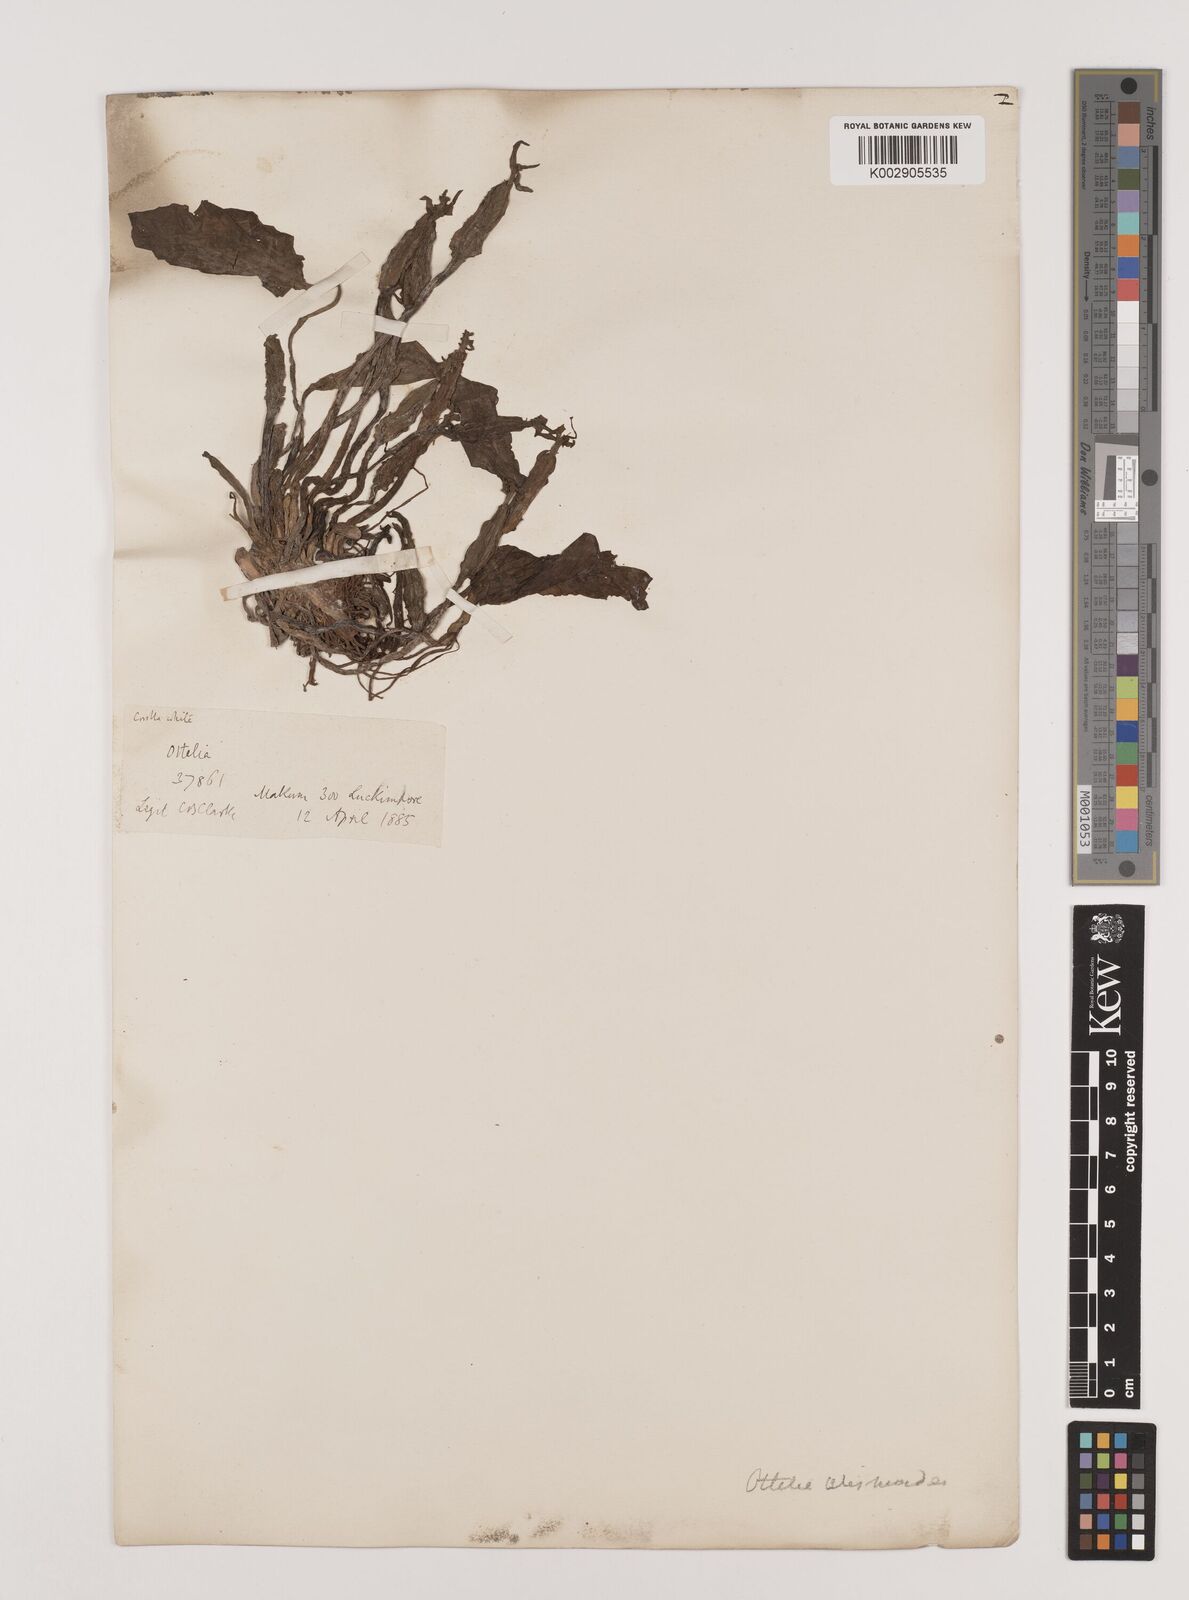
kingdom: Plantae
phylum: Tracheophyta
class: Liliopsida
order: Alismatales
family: Hydrocharitaceae
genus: Ottelia
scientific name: Ottelia alismoides
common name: Duck-lettuce
